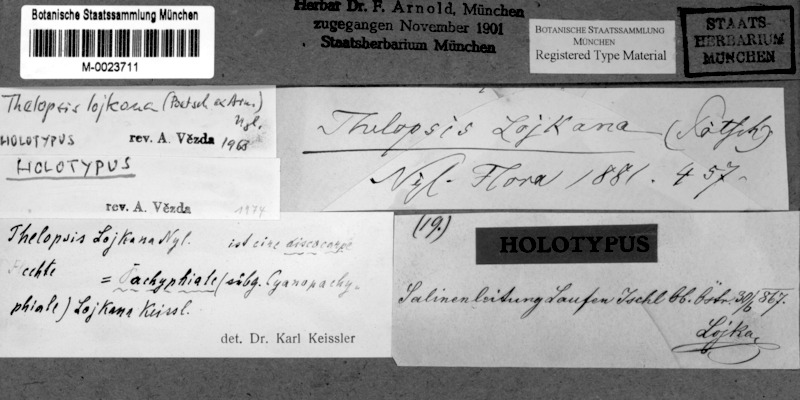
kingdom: Fungi
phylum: Ascomycota
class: Lecanoromycetes
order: Ostropales
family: Stictidaceae
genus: Thelopsis
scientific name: Thelopsis
